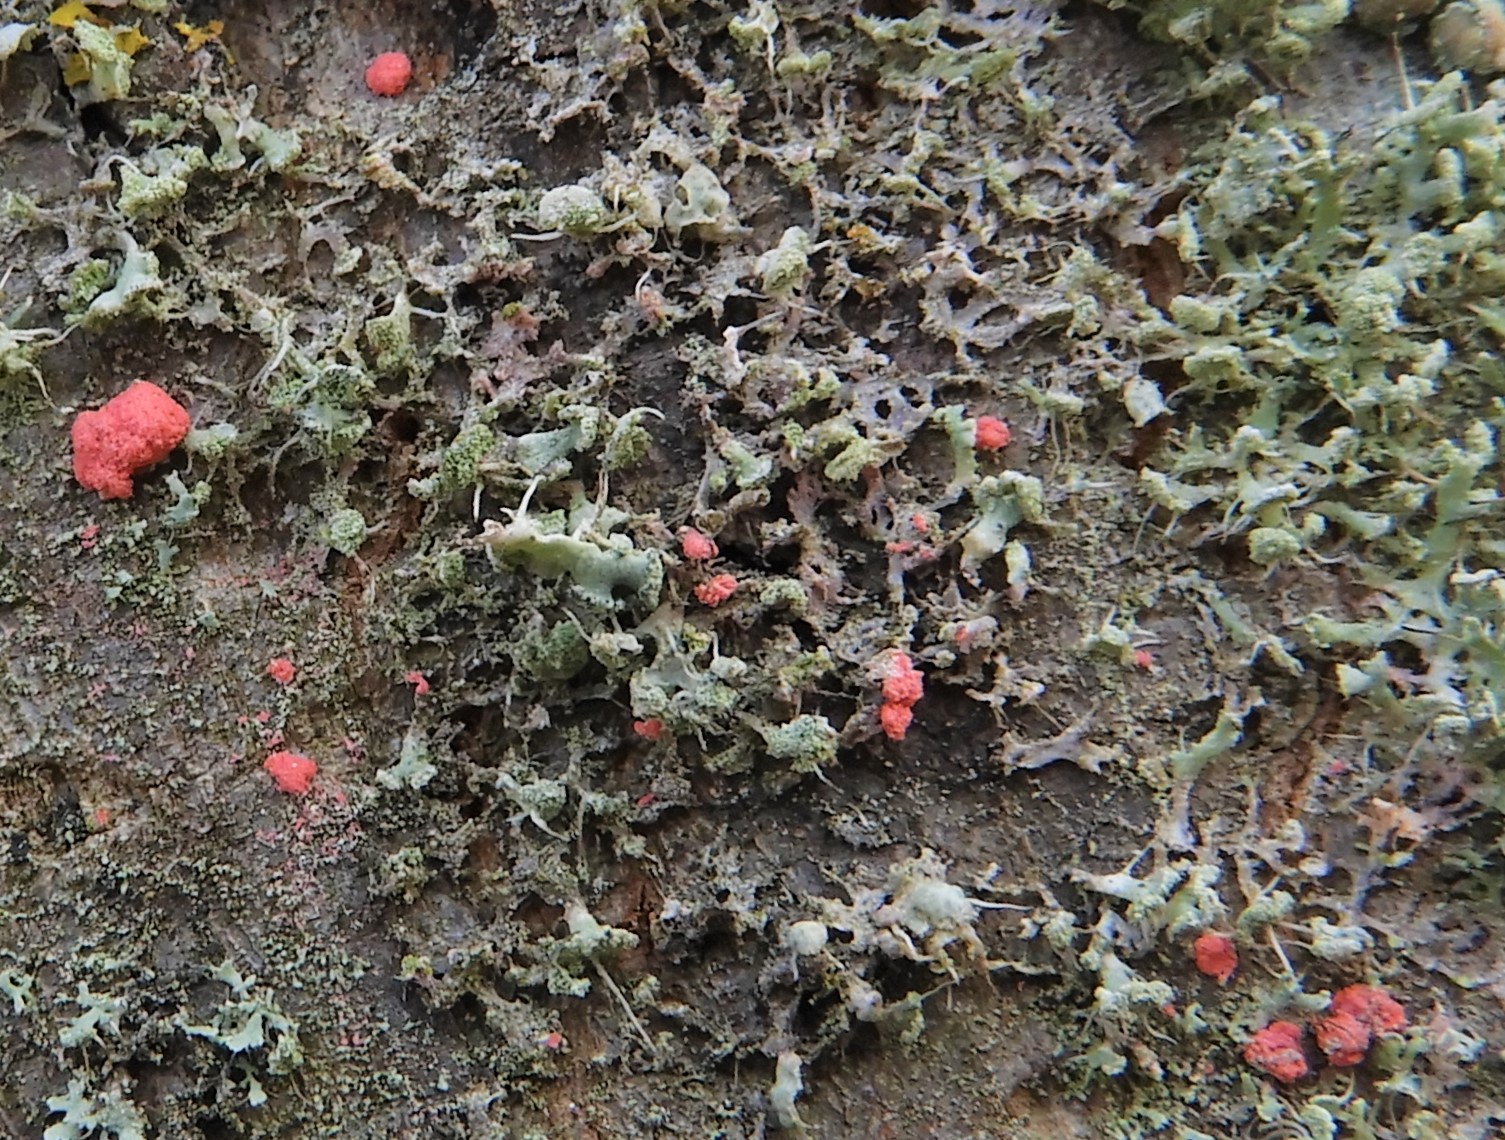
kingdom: Fungi
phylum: Ascomycota
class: Sordariomycetes
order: Hypocreales
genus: Illosporiopsis
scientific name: Illosporiopsis christiansenii
